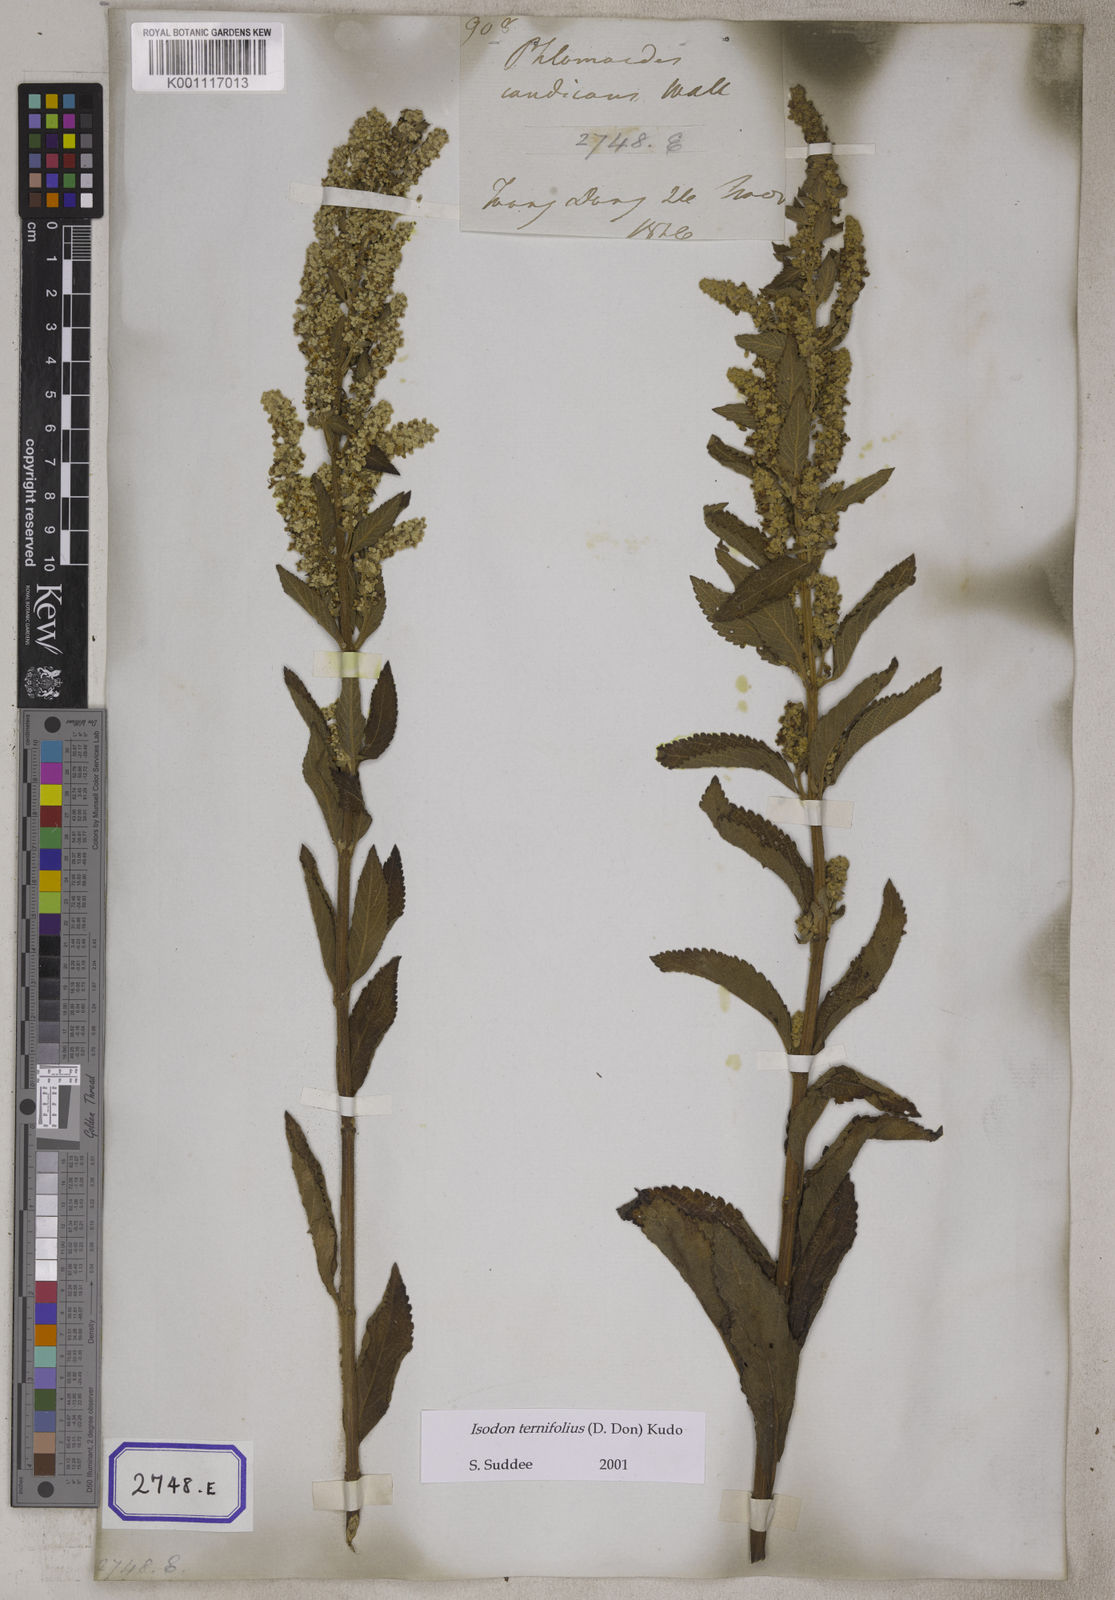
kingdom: Plantae
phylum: Tracheophyta
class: Magnoliopsida
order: Lamiales
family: Lamiaceae
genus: Isodon
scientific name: Isodon ternifolius
